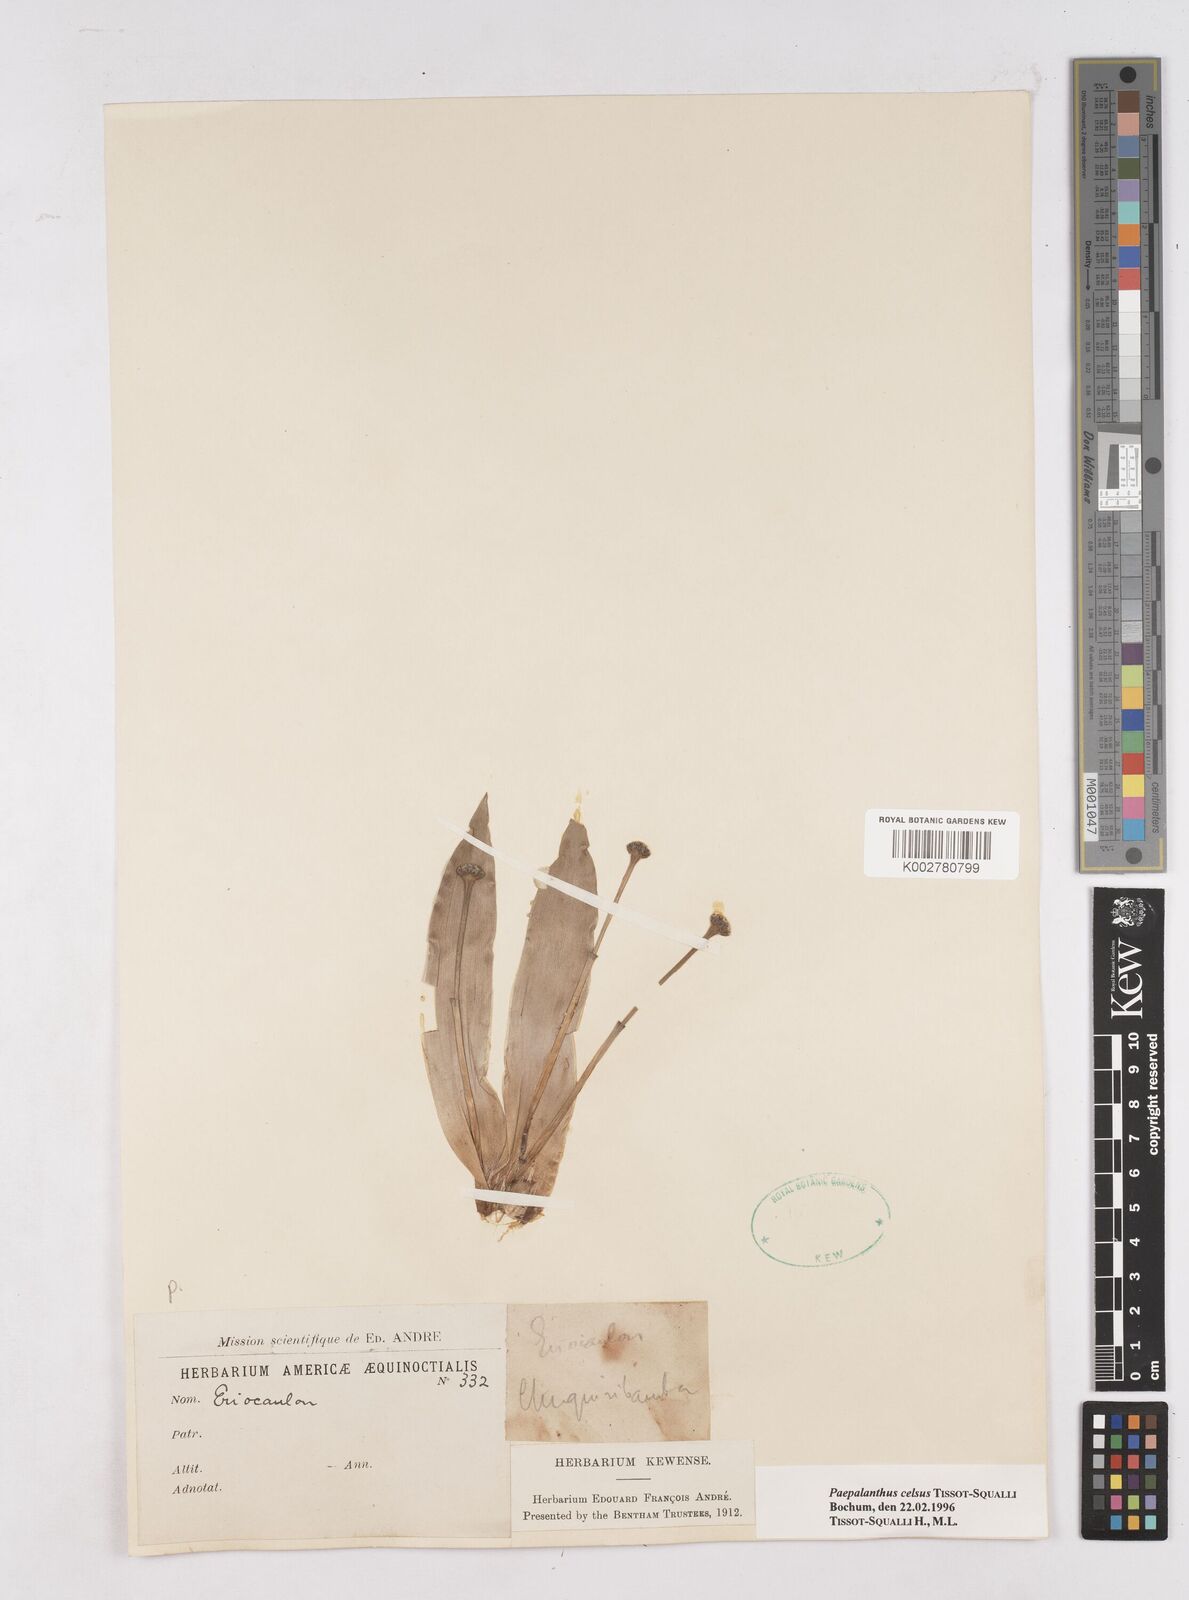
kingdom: Plantae
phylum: Tracheophyta
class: Liliopsida
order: Poales
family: Eriocaulaceae
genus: Paepalanthus
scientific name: Paepalanthus celsus
